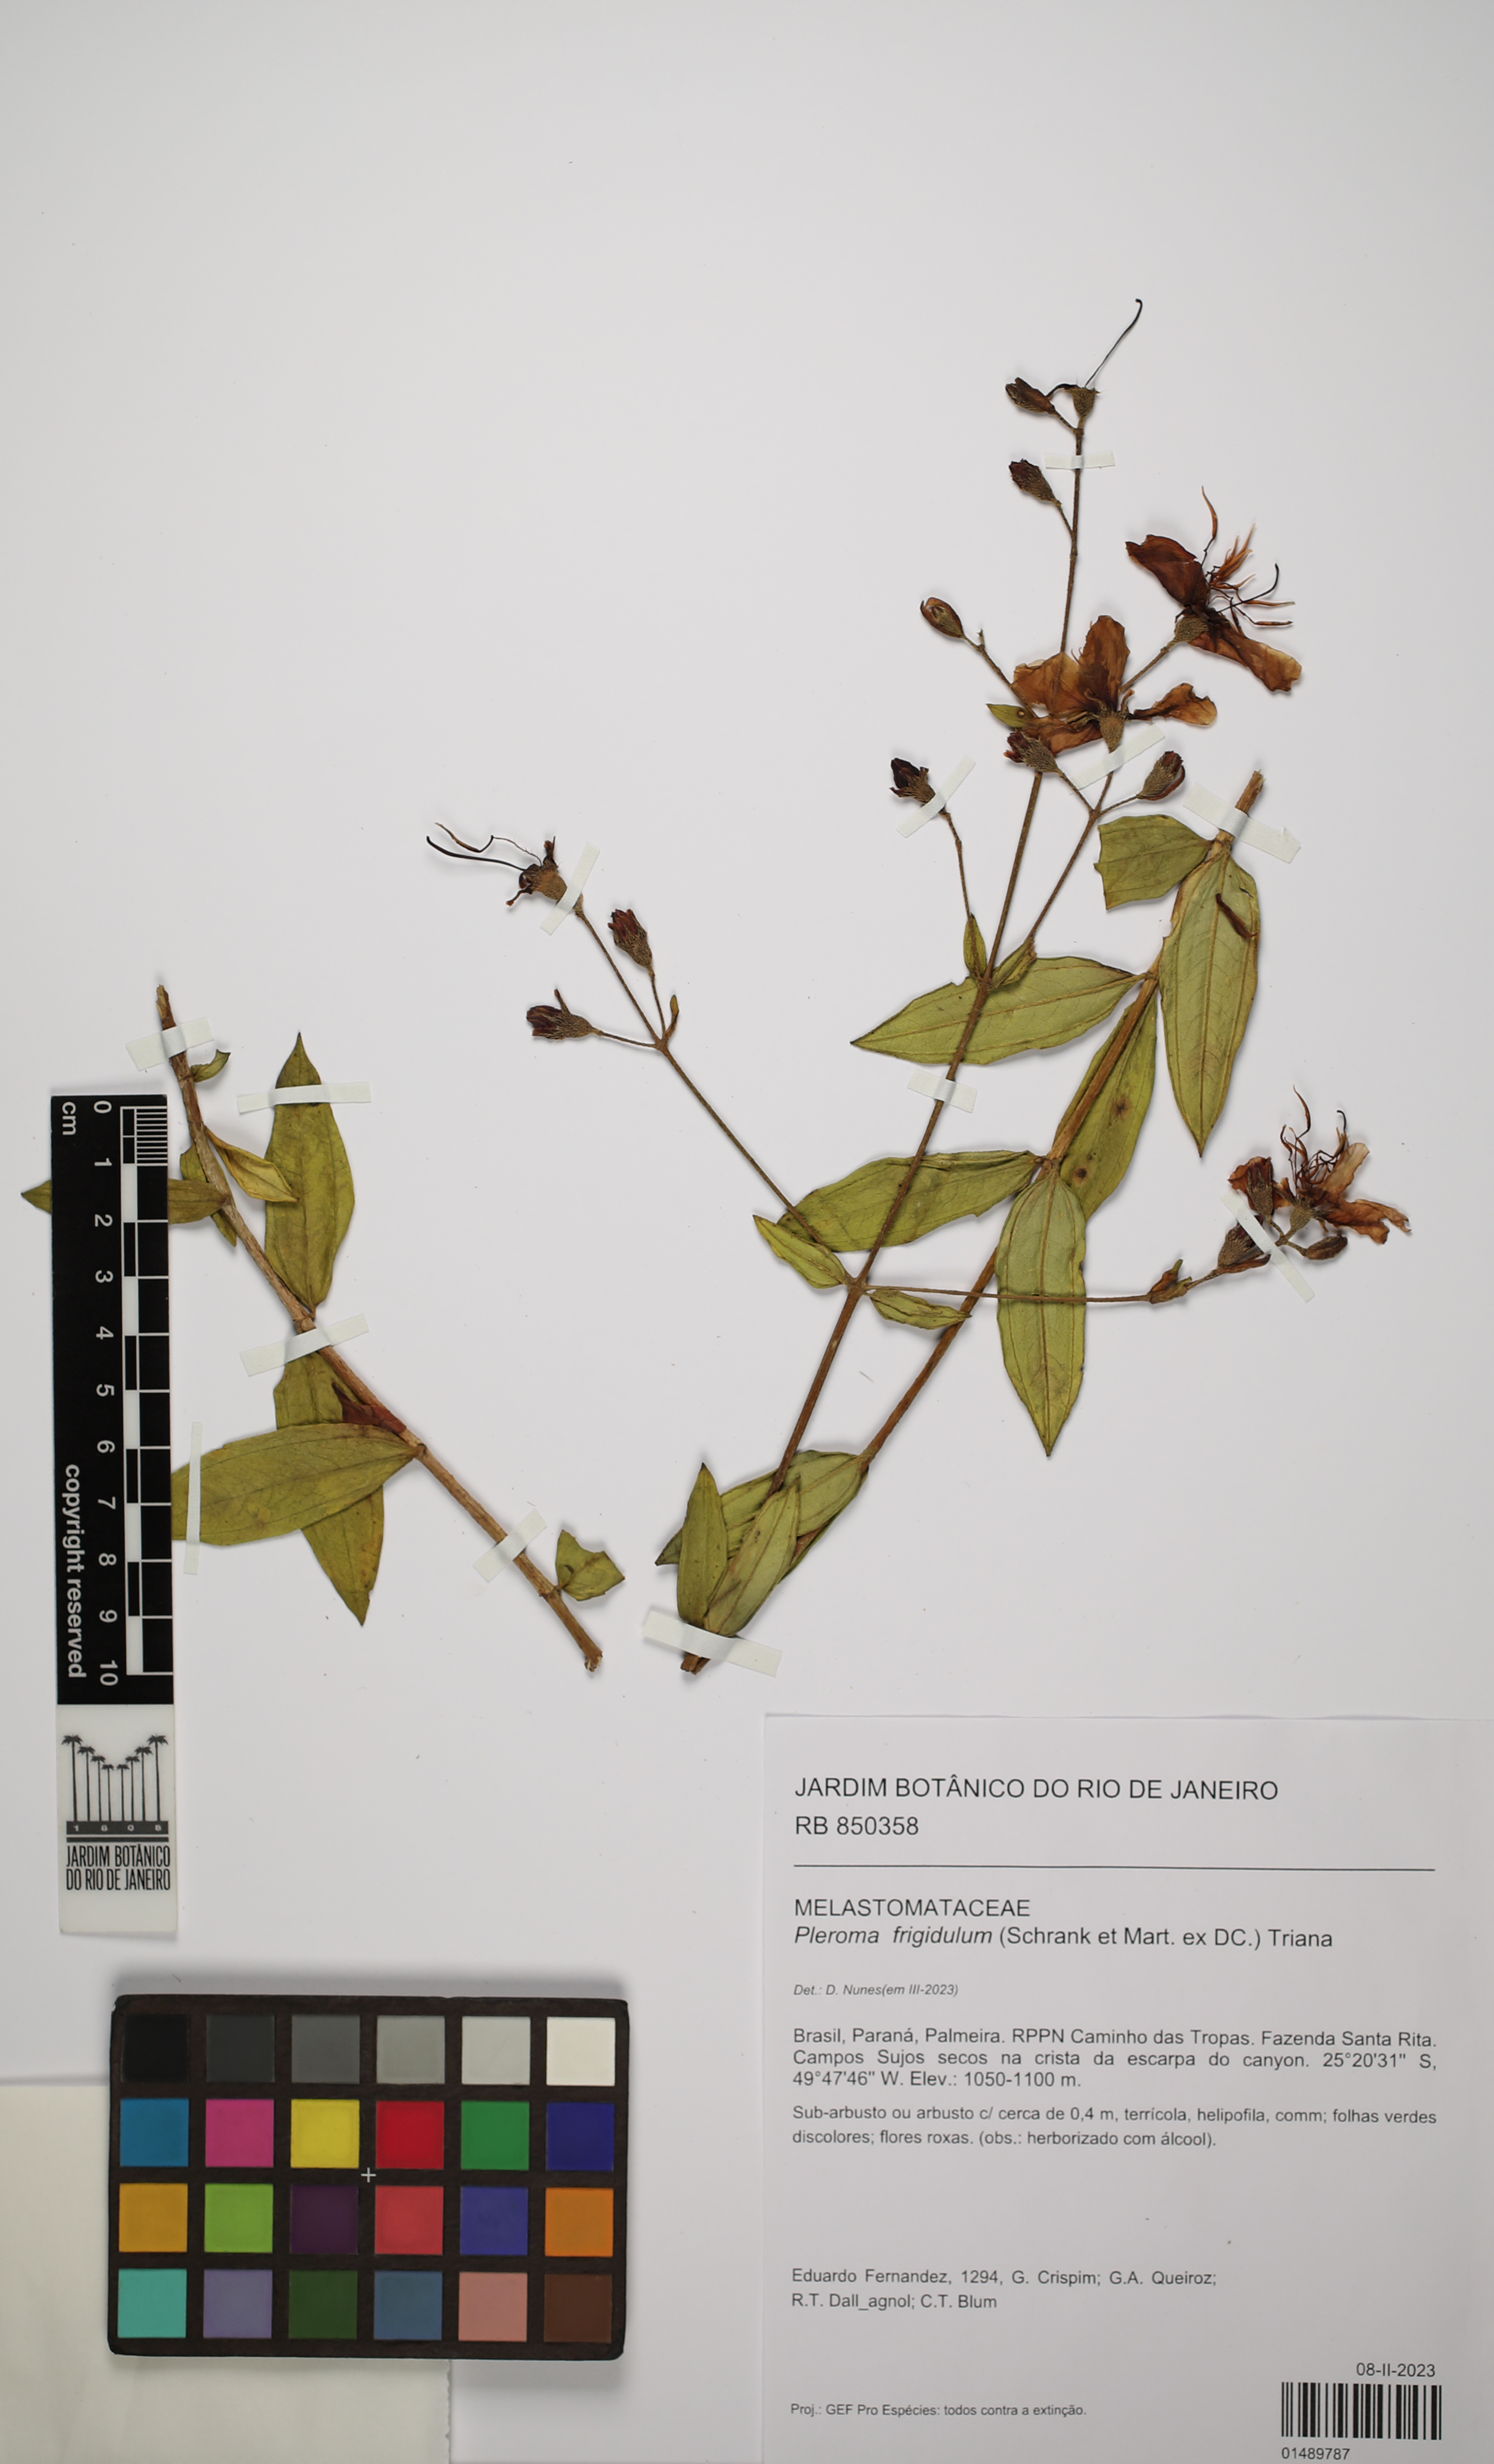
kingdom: Plantae
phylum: Tracheophyta
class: Magnoliopsida
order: Myrtales
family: Melastomataceae
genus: Pleroma
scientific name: Pleroma martiusianum
